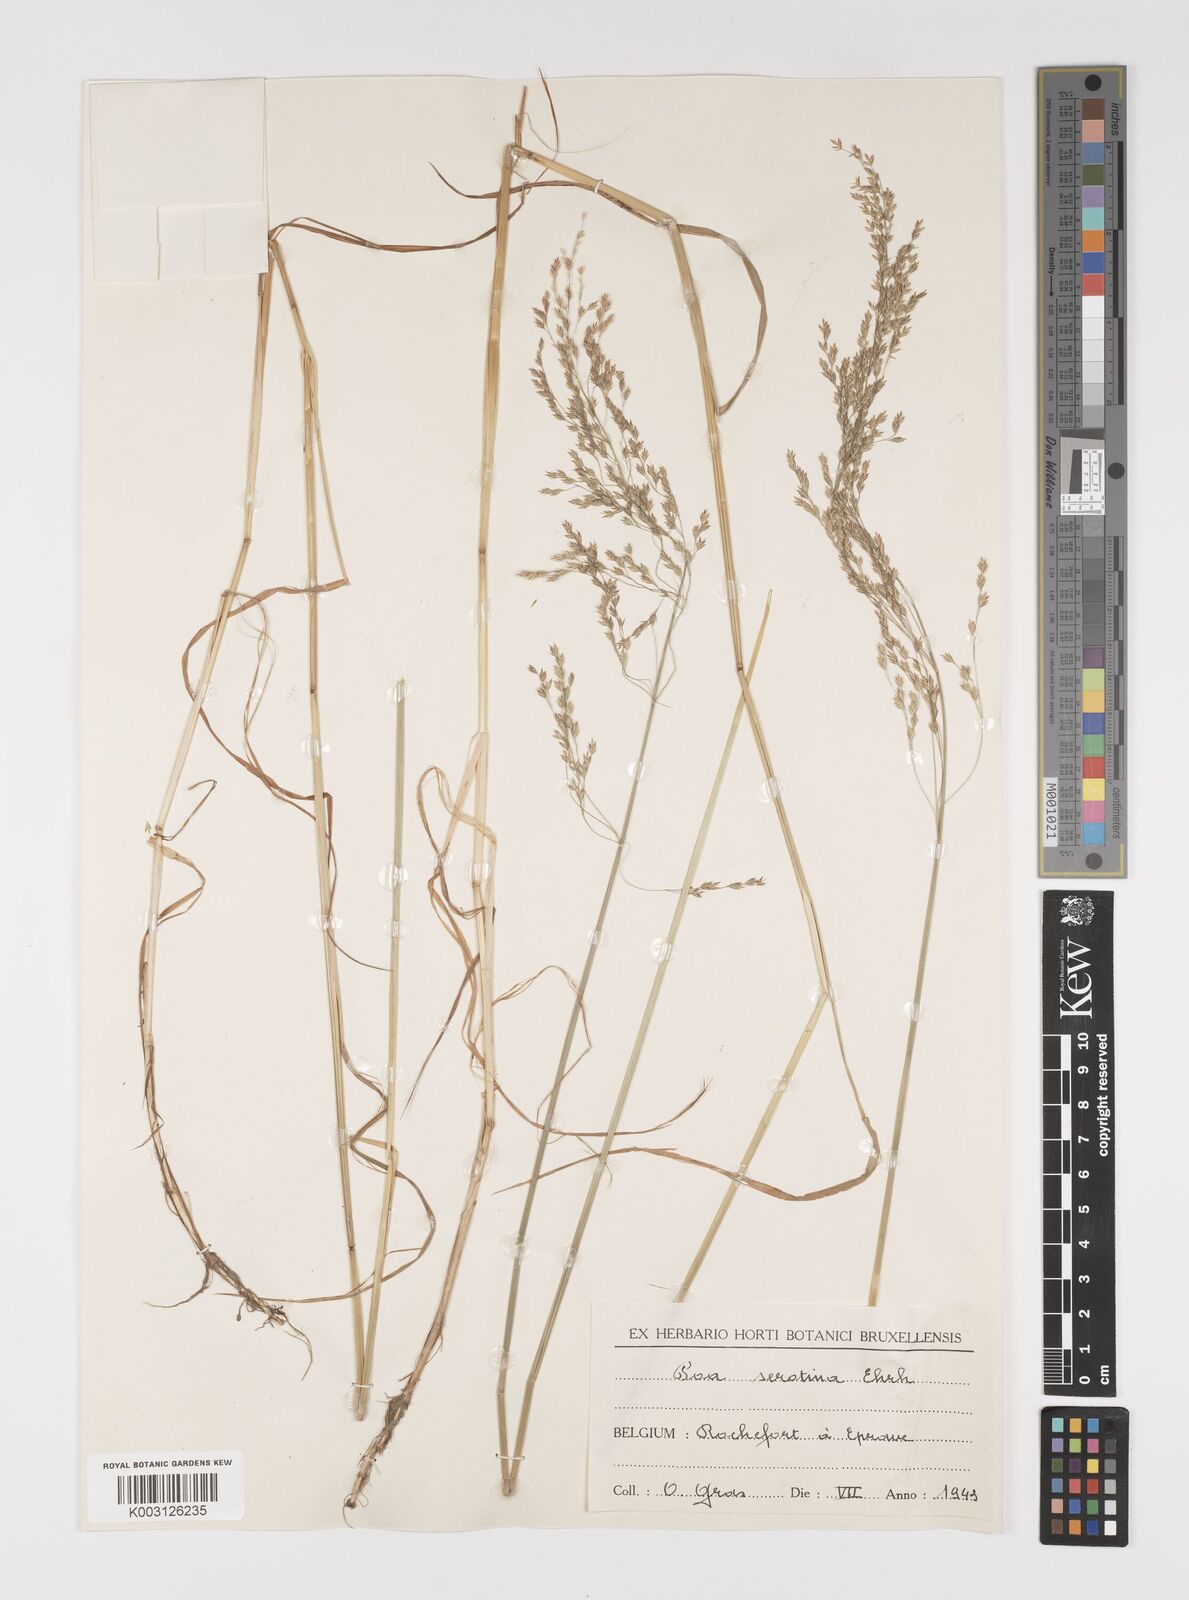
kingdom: Plantae
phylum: Tracheophyta
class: Liliopsida
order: Poales
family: Poaceae
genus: Poa
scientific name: Poa palustris
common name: Swamp meadow-grass
